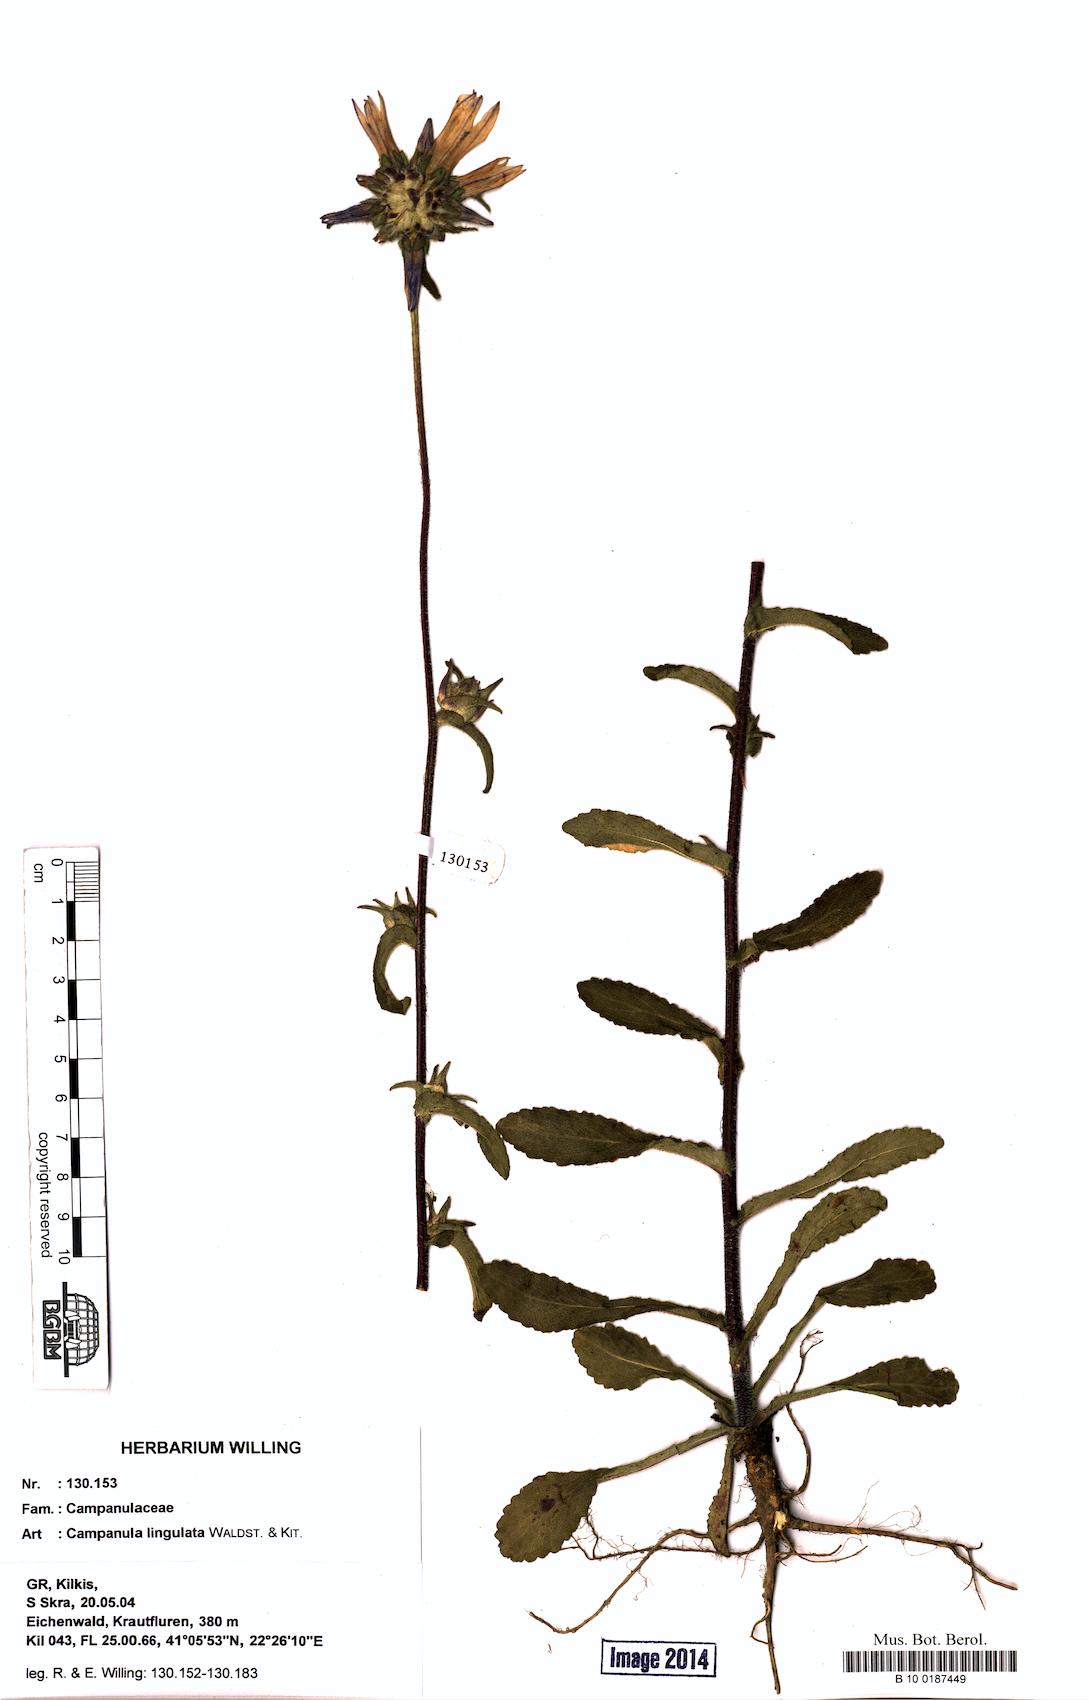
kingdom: Plantae
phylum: Tracheophyta
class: Magnoliopsida
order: Asterales
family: Campanulaceae
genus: Campanula
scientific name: Campanula lingulata
